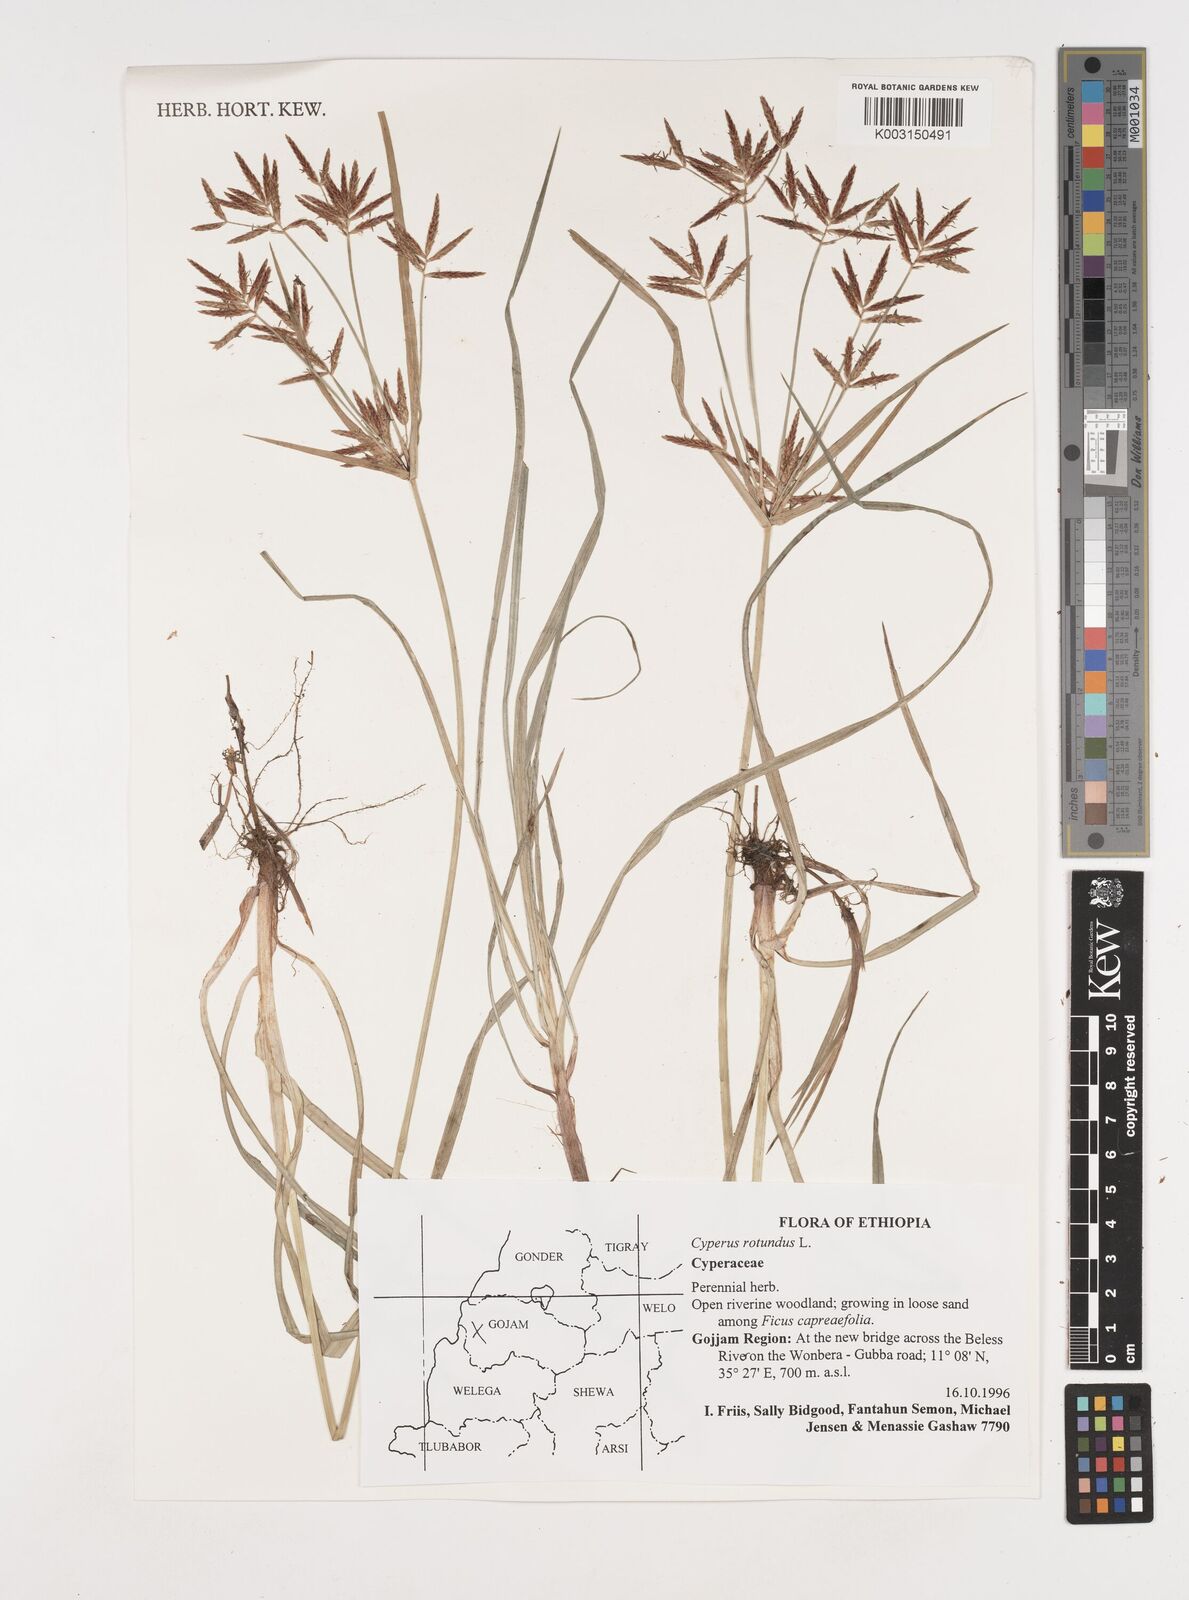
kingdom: Plantae
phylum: Tracheophyta
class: Liliopsida
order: Poales
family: Cyperaceae
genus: Cyperus
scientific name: Cyperus rotundus
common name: Nutgrass
